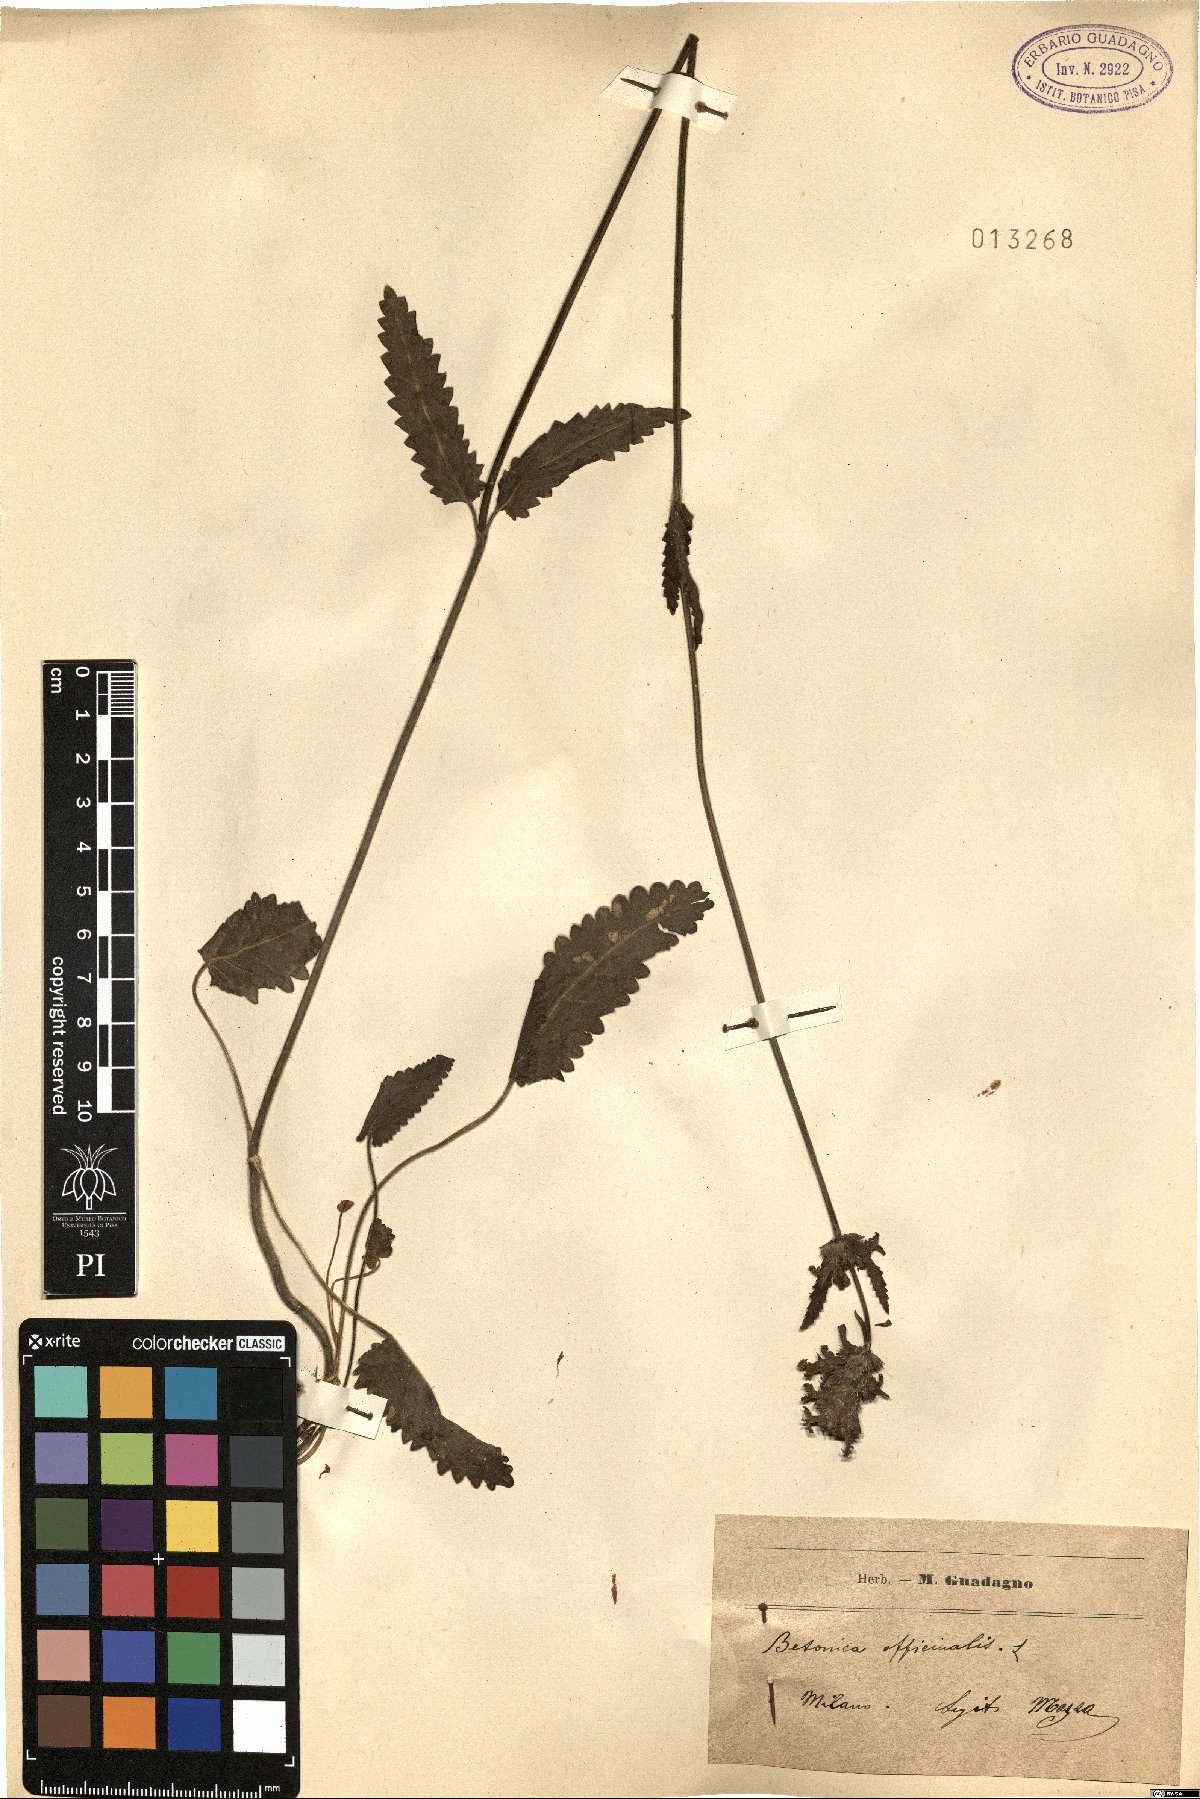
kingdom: Plantae
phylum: Tracheophyta
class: Magnoliopsida
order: Lamiales
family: Lamiaceae
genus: Betonica
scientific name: Betonica officinalis
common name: Bishop's-wort
